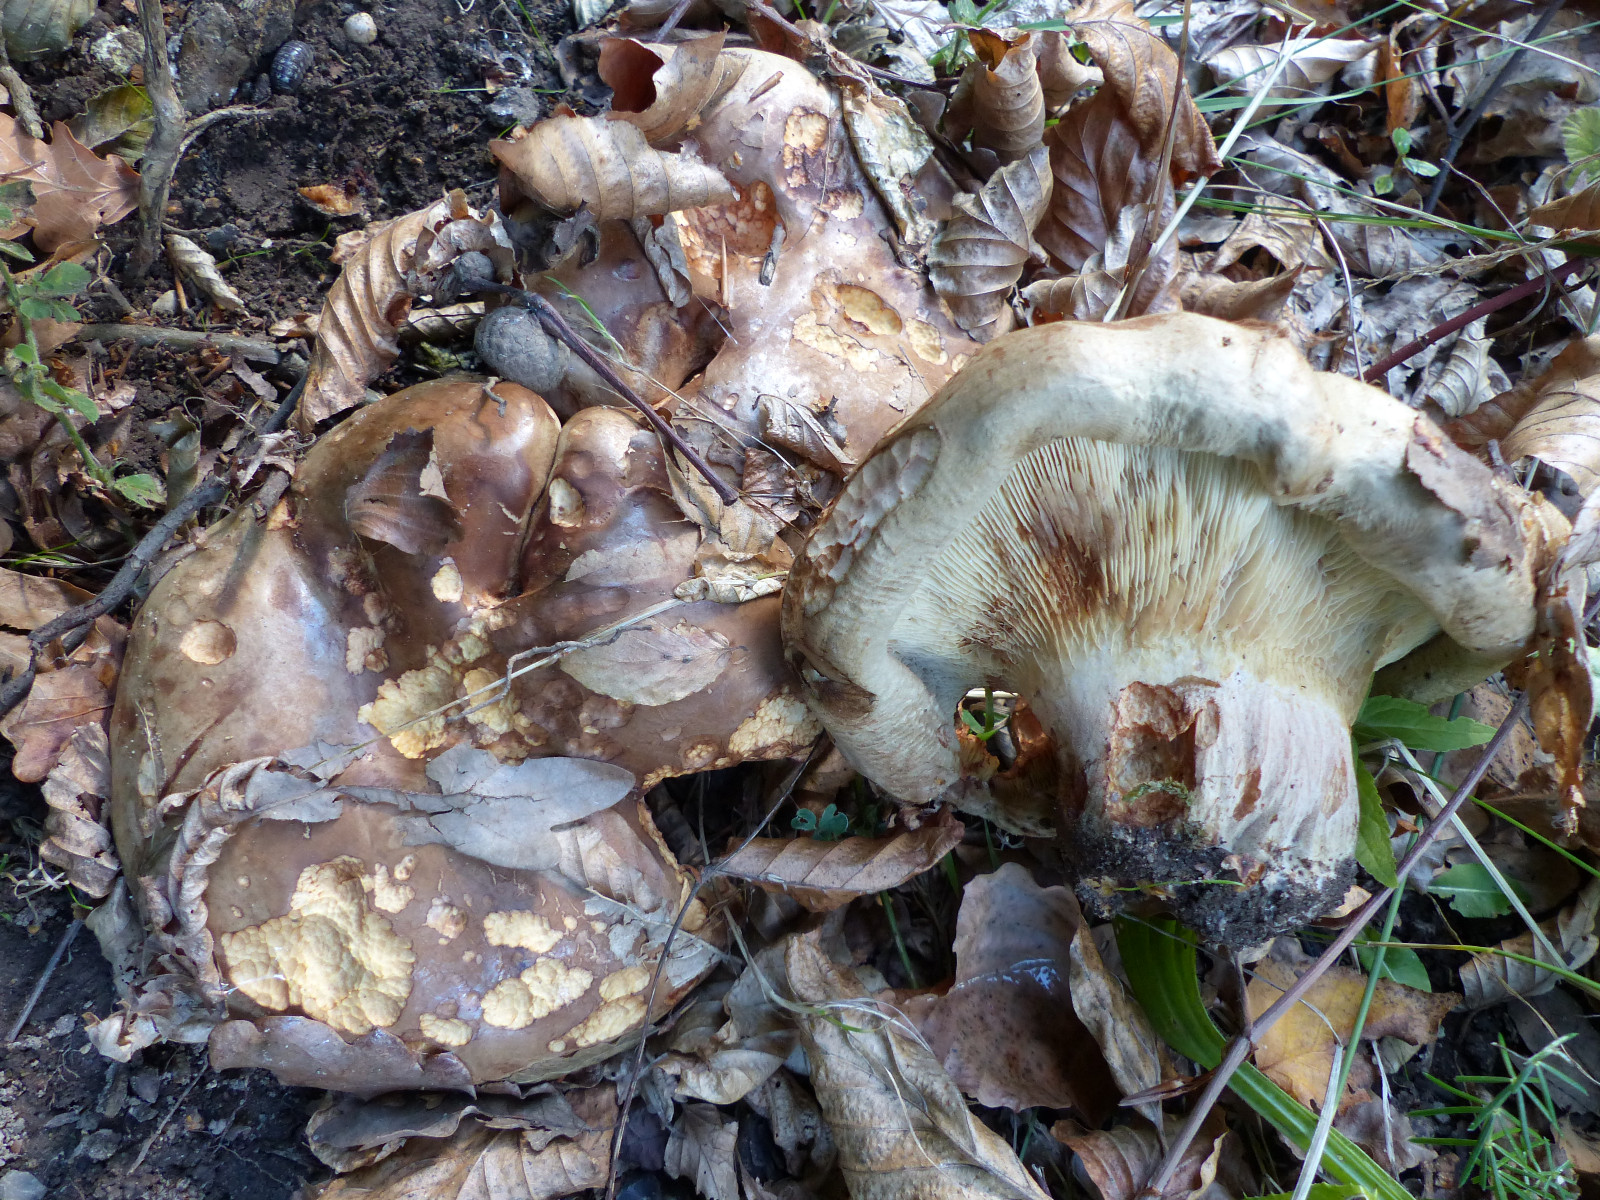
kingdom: Fungi
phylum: Basidiomycota
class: Agaricomycetes
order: Boletales
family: Paxillaceae
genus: Paxillus
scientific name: Paxillus obscurisporus
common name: mahognisporet netbladhat
